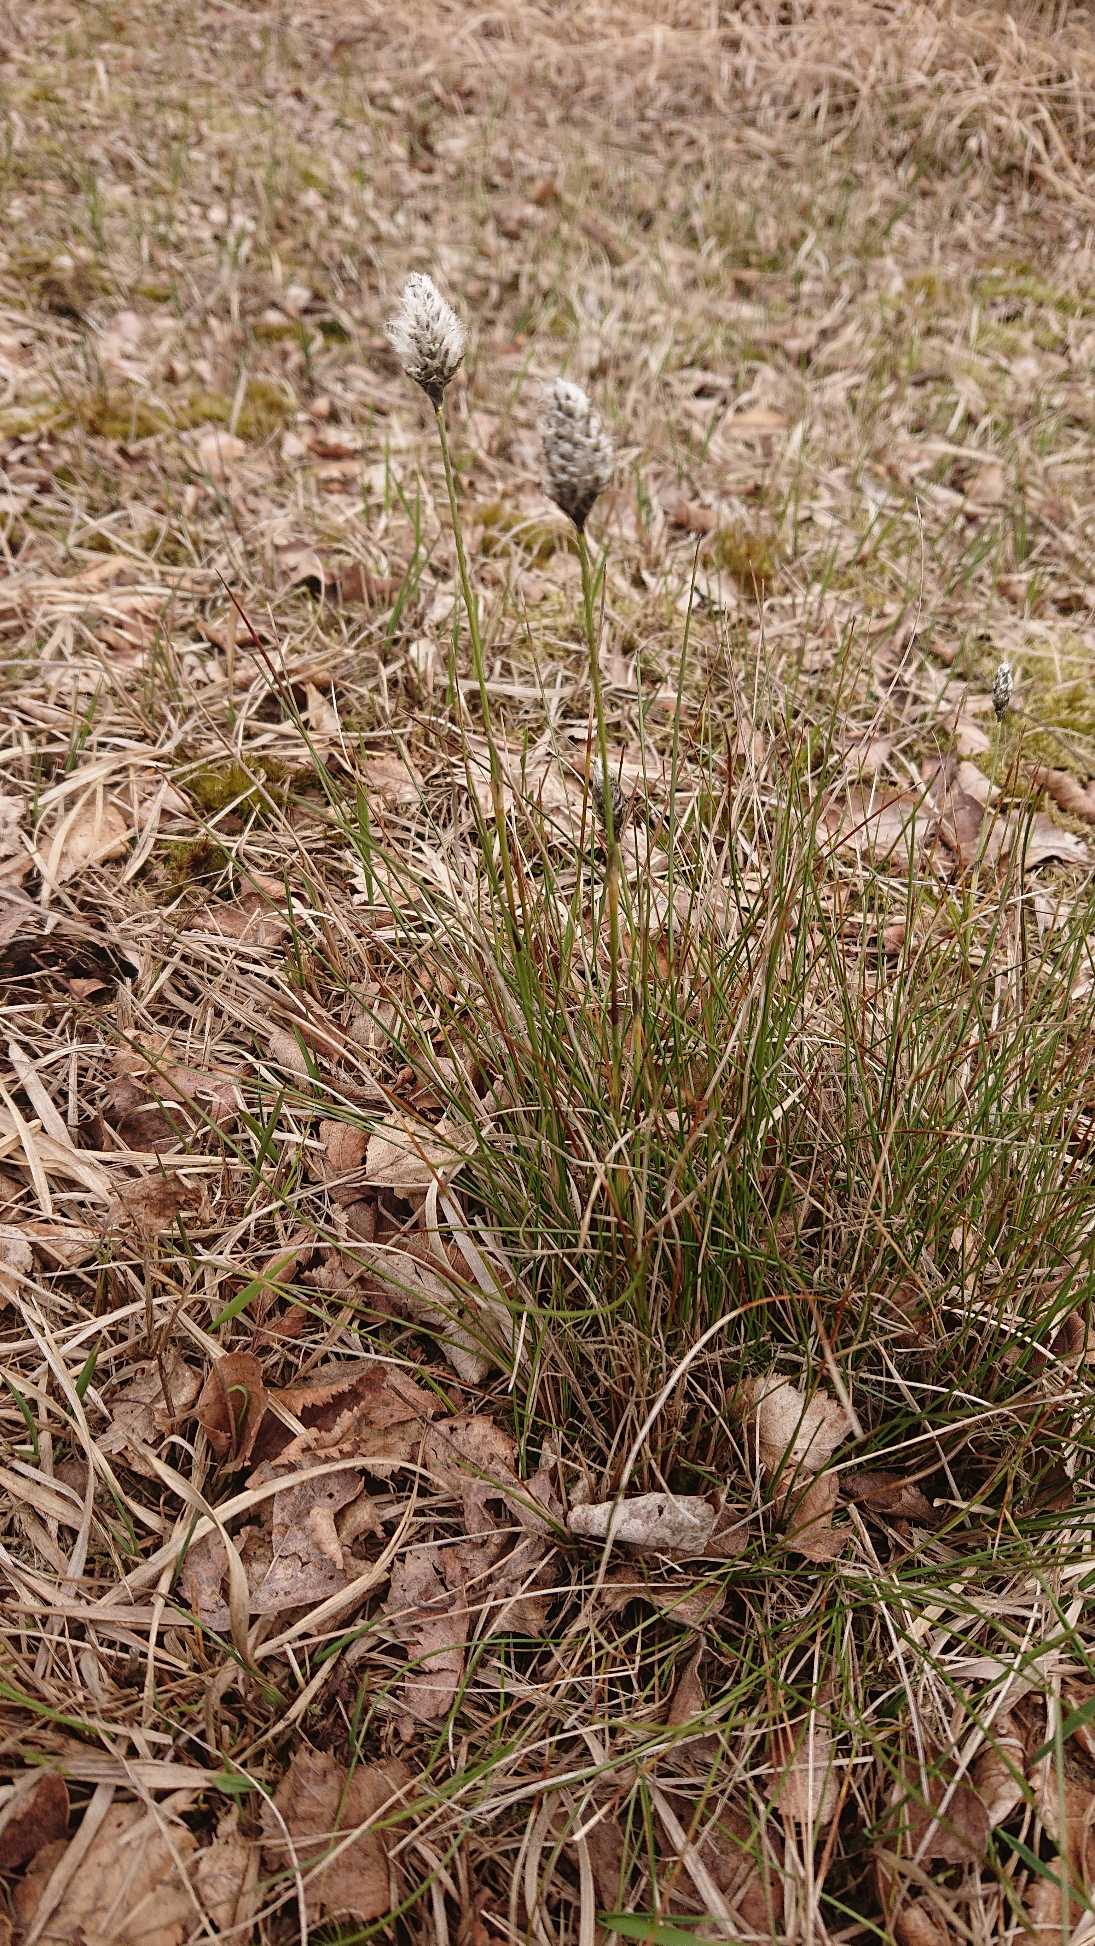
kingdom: Plantae
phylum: Tracheophyta
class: Liliopsida
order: Poales
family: Cyperaceae
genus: Eriophorum
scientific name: Eriophorum vaginatum
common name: Tue-kæruld
